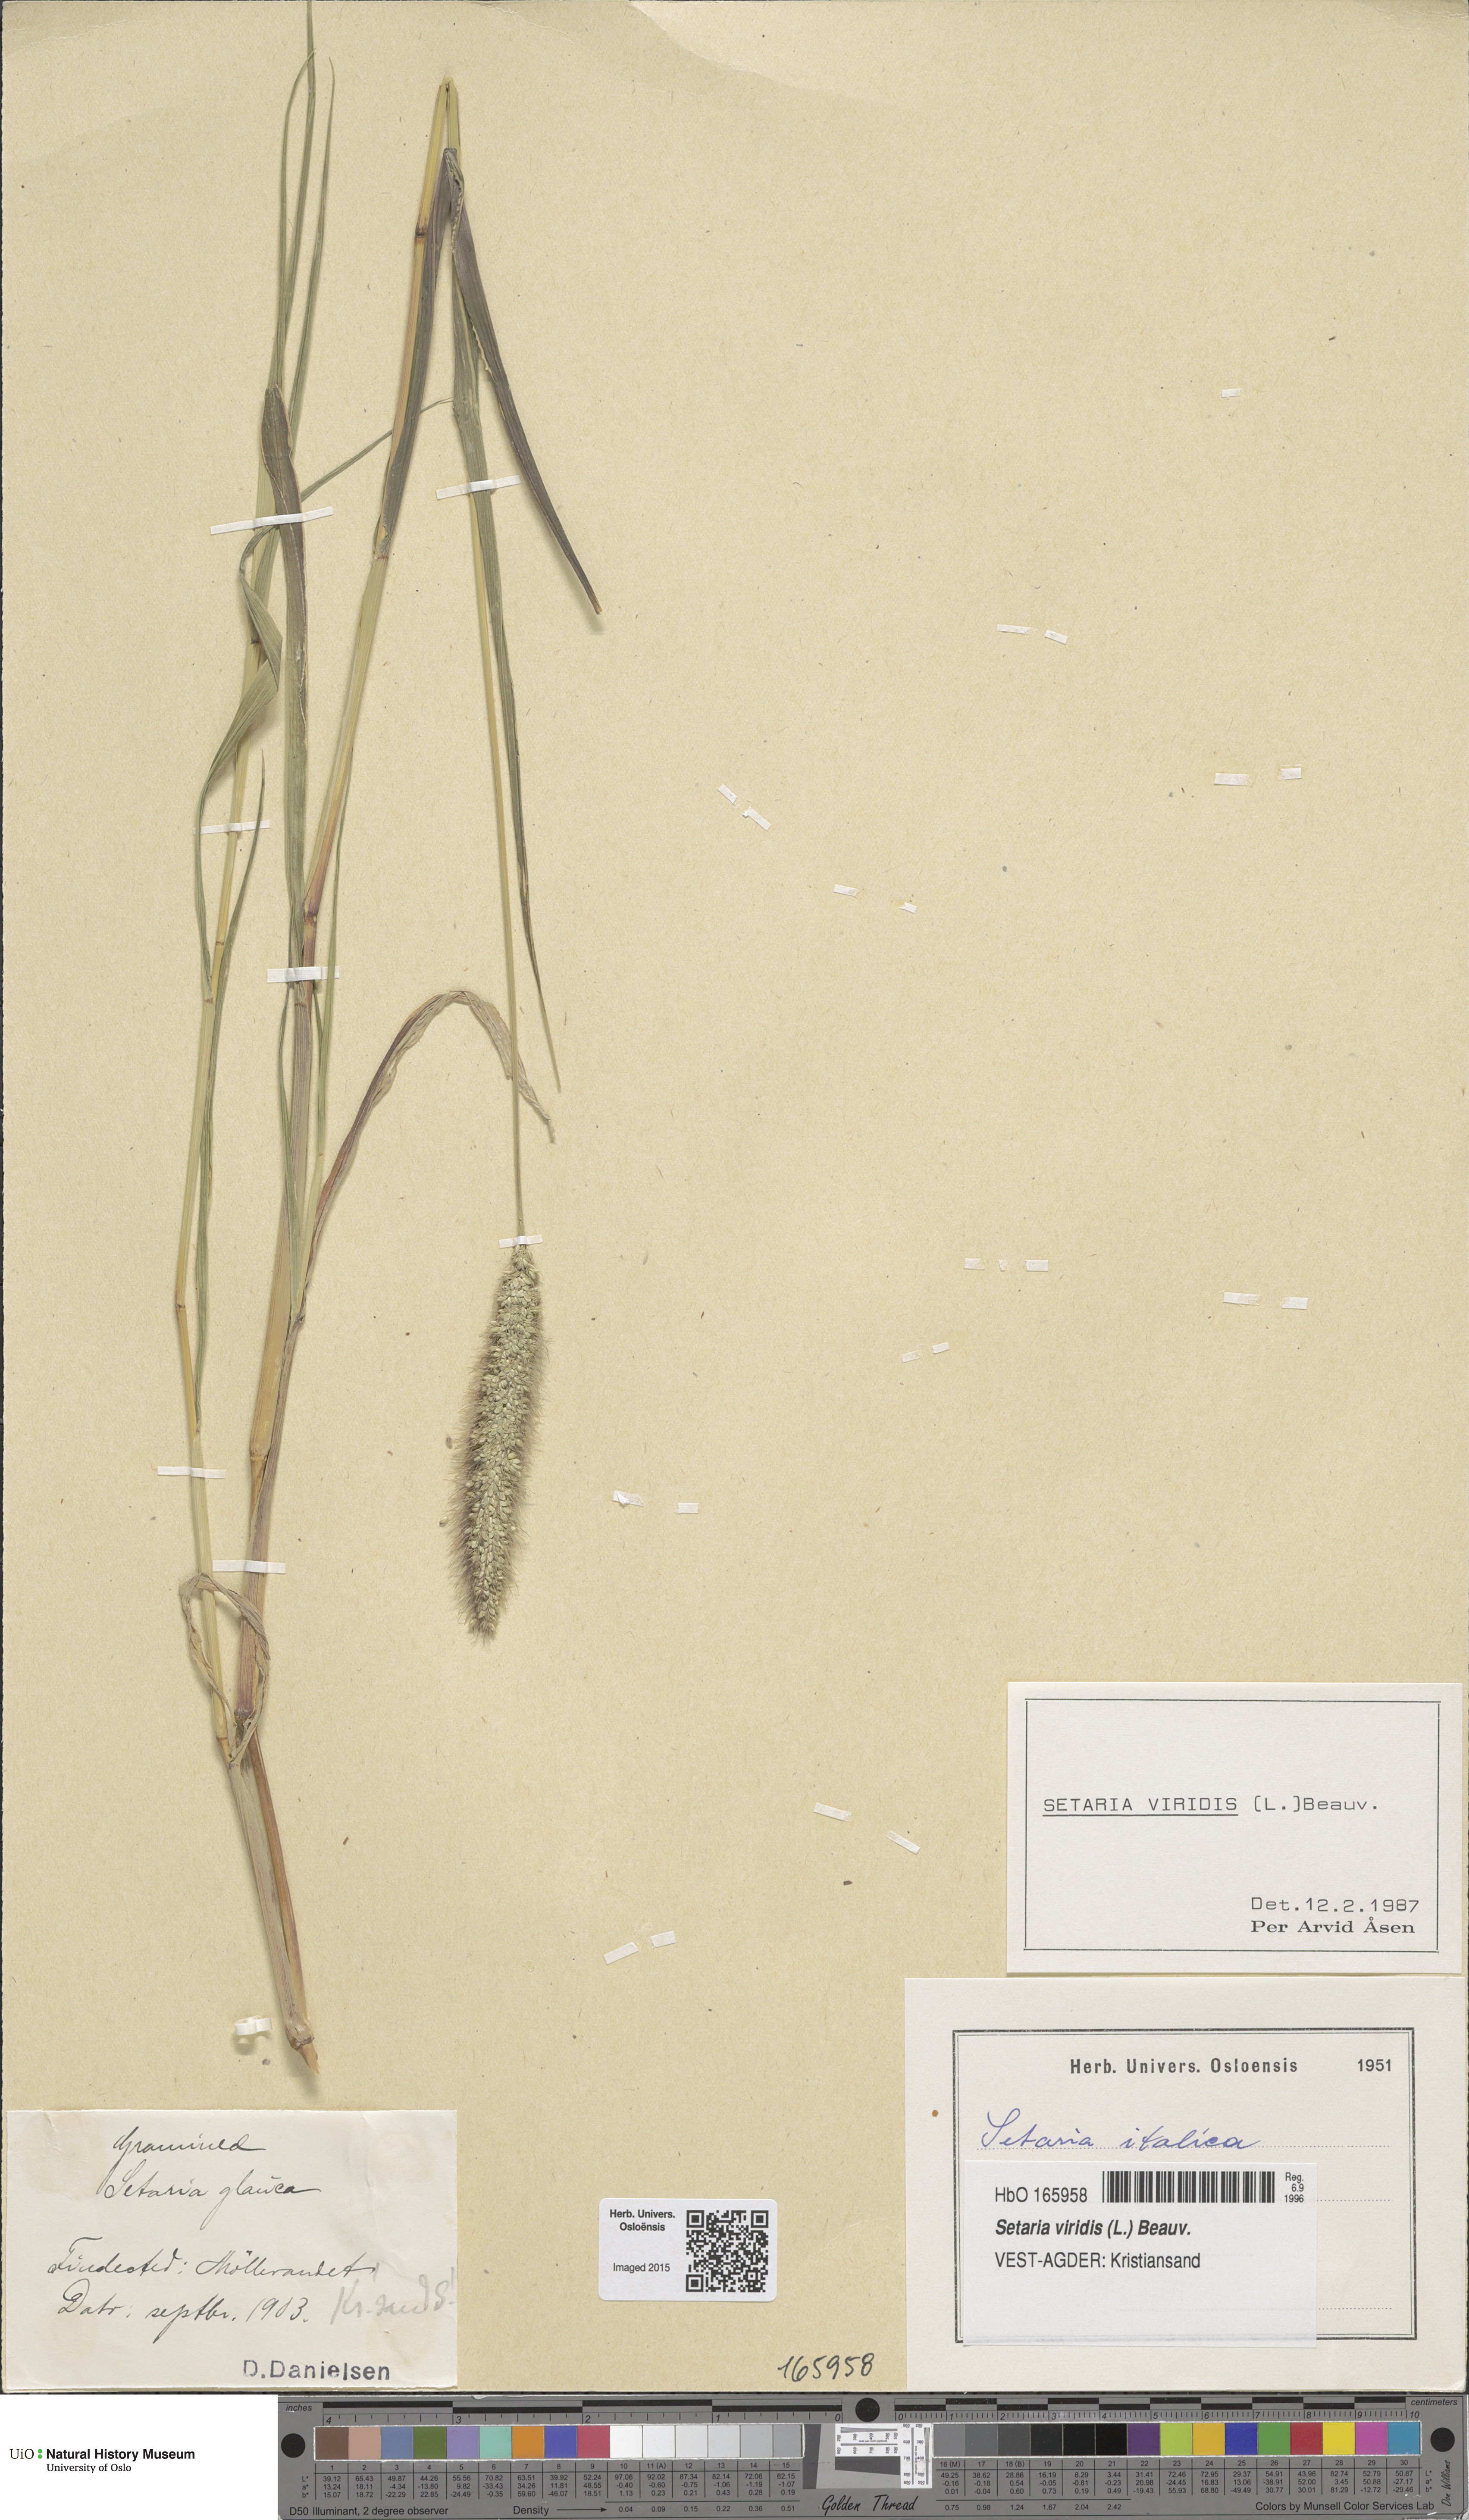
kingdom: Plantae
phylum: Tracheophyta
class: Liliopsida
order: Poales
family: Poaceae
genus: Setaria
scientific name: Setaria viridis
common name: Green bristlegrass
